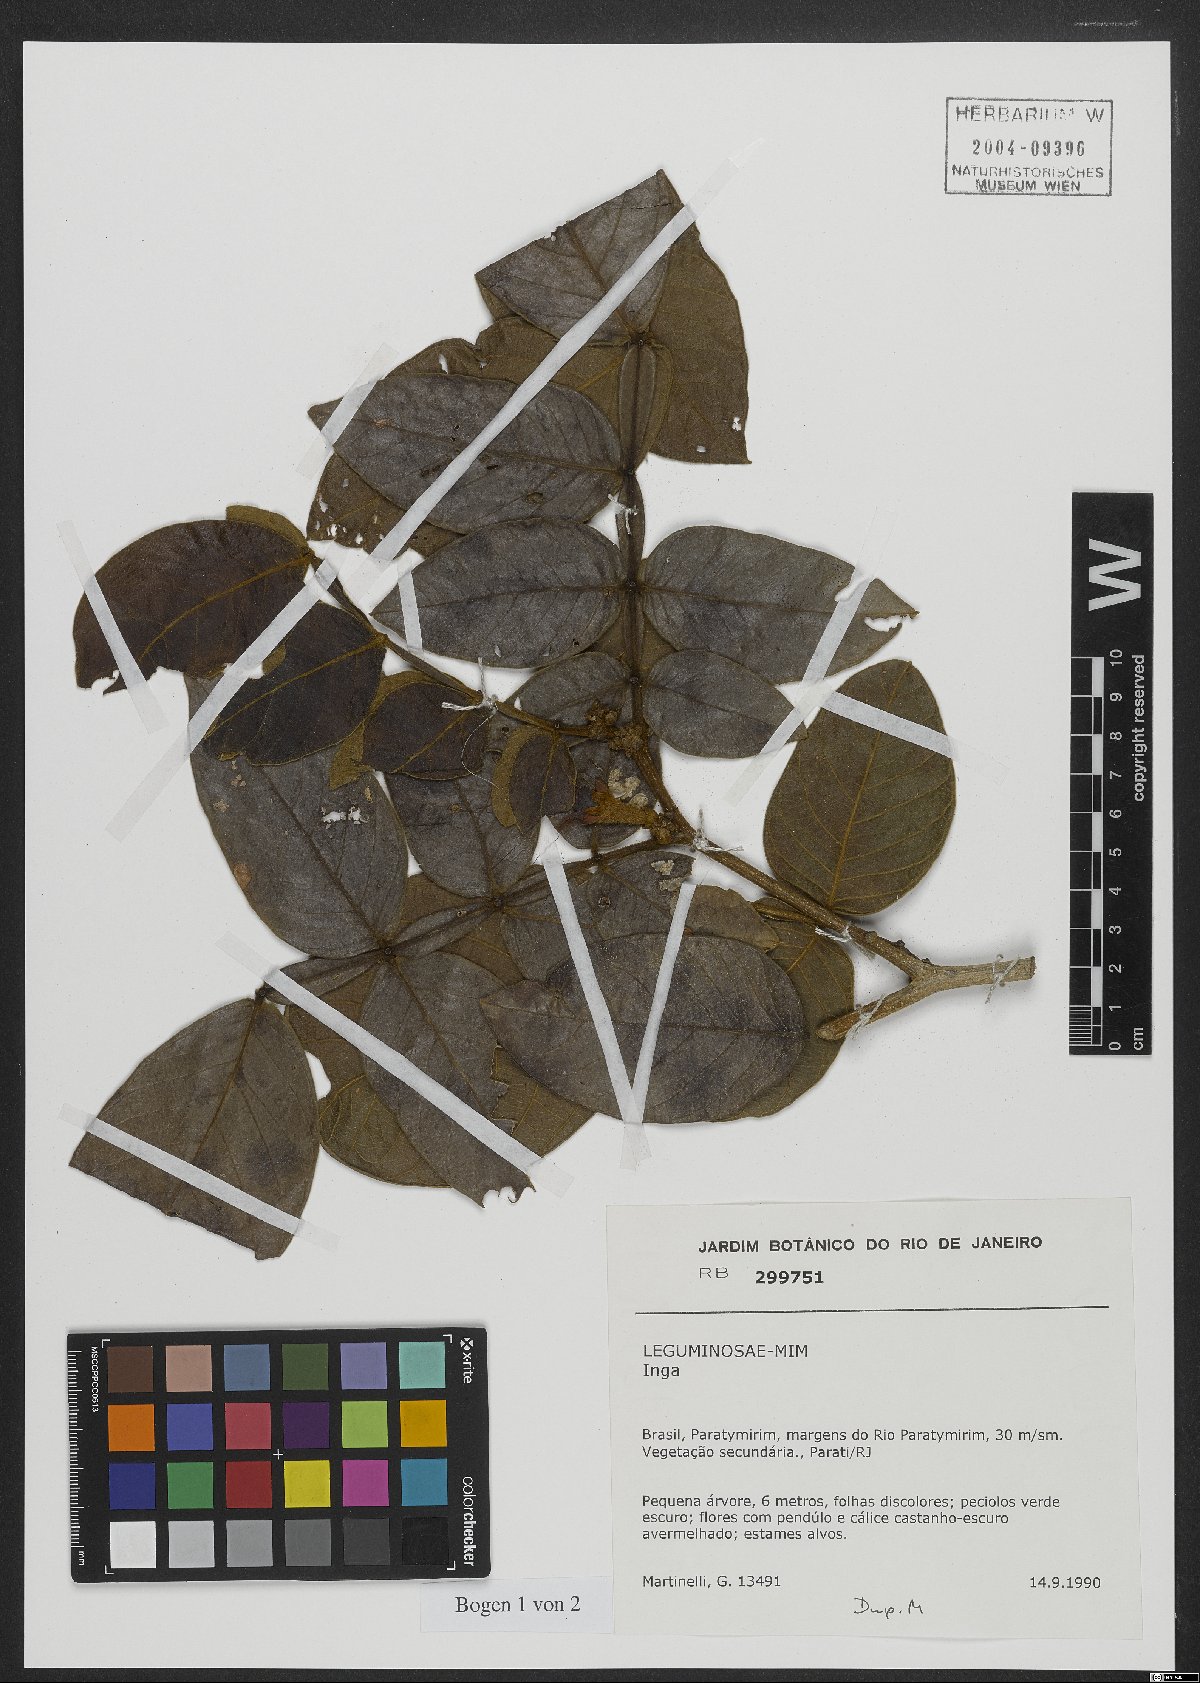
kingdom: Plantae
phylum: Tracheophyta
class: Magnoliopsida
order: Fabales
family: Fabaceae
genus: Inga
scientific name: Inga
